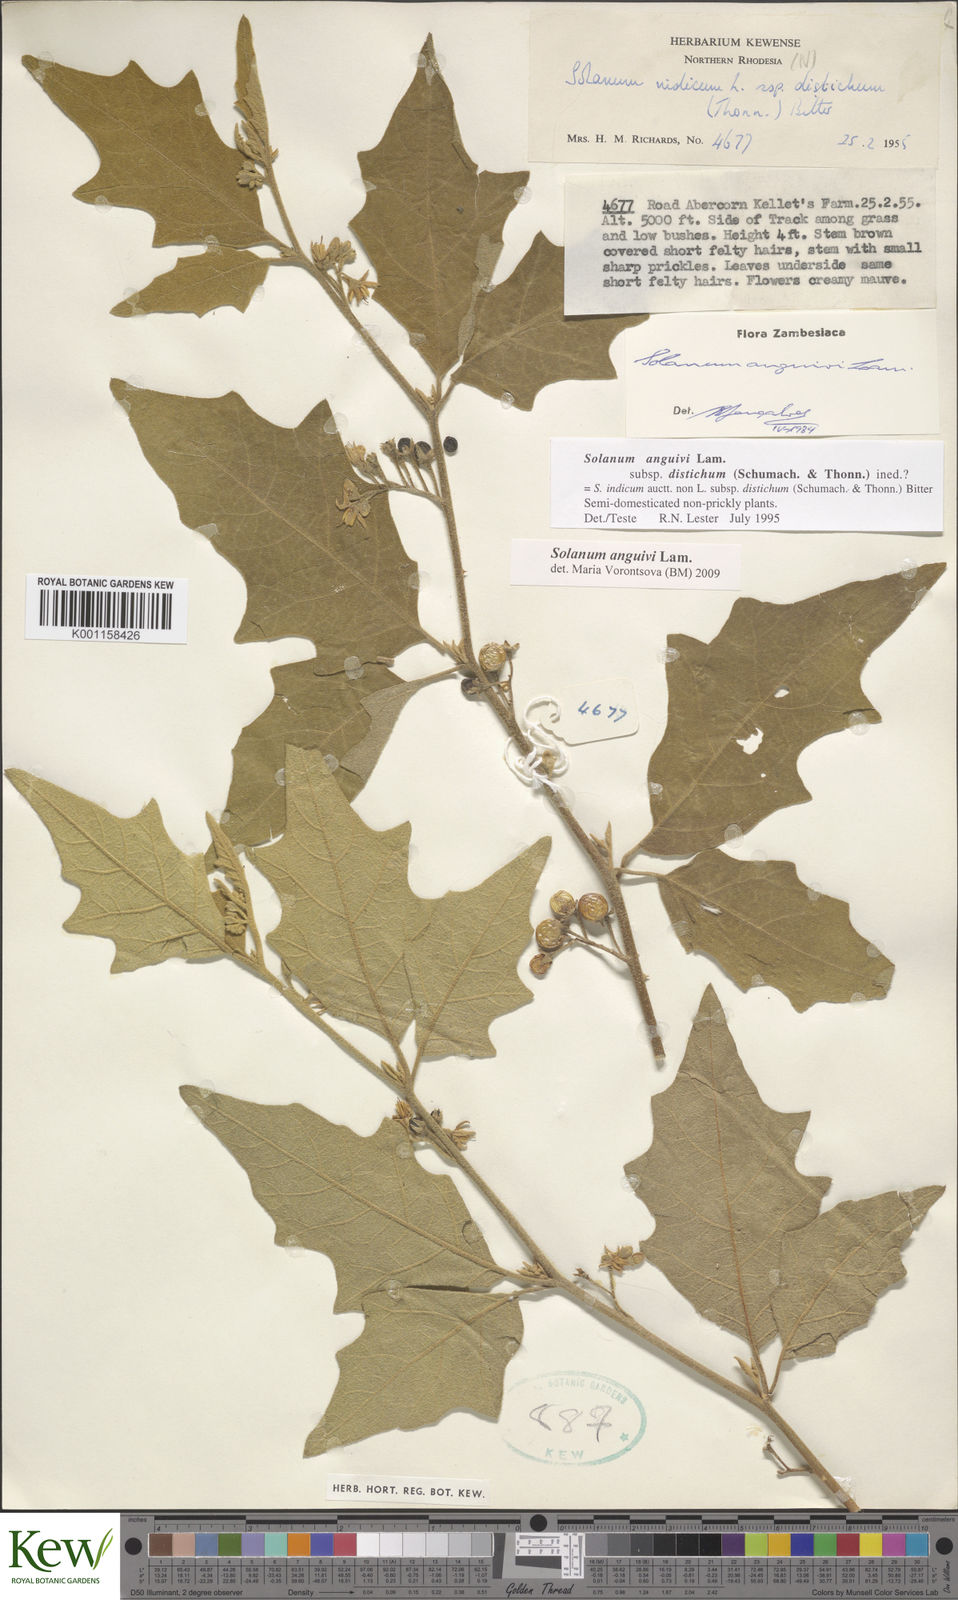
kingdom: Plantae
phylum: Tracheophyta
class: Magnoliopsida
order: Solanales
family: Solanaceae
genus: Solanum
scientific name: Solanum anguivi
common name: Forest bitterberry
